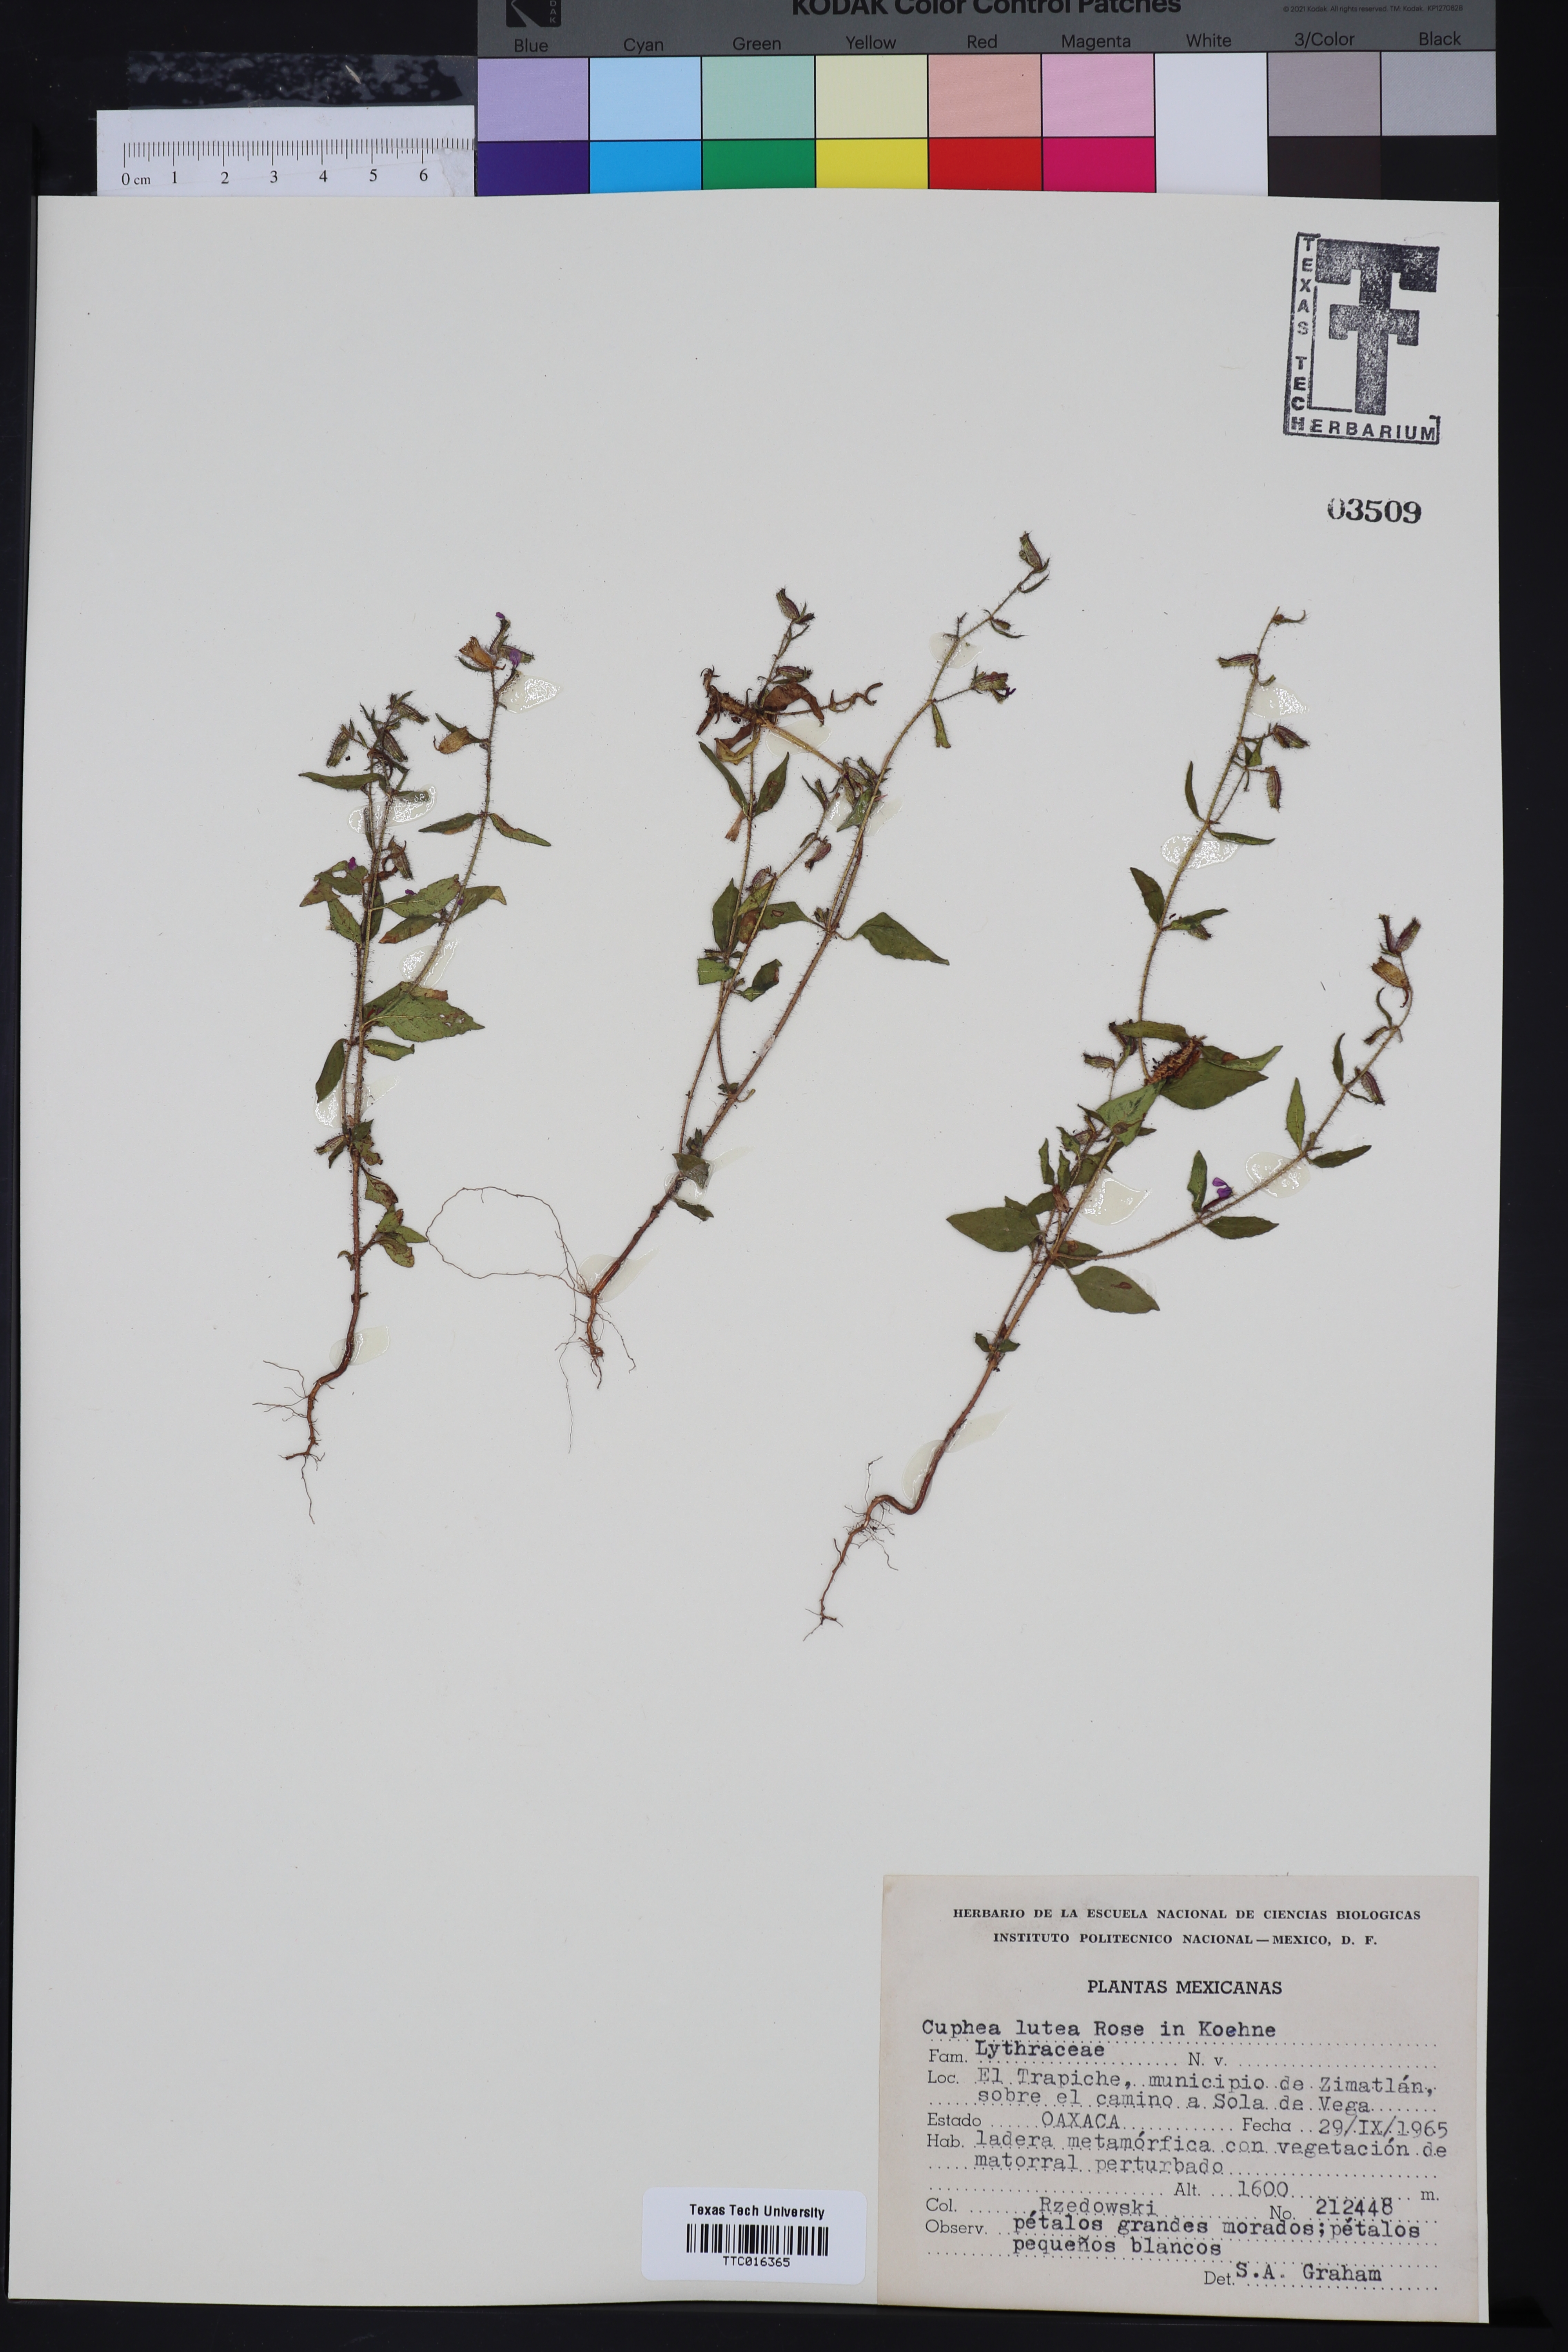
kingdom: Plantae
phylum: Tracheophyta
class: Magnoliopsida
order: Myrtales
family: Lythraceae
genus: Cuphea
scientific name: Cuphea lutea
